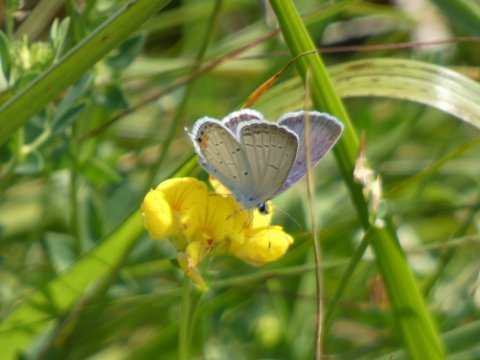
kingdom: Animalia
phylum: Arthropoda
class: Insecta
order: Lepidoptera
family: Lycaenidae
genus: Elkalyce
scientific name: Elkalyce comyntas
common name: Eastern Tailed-Blue
